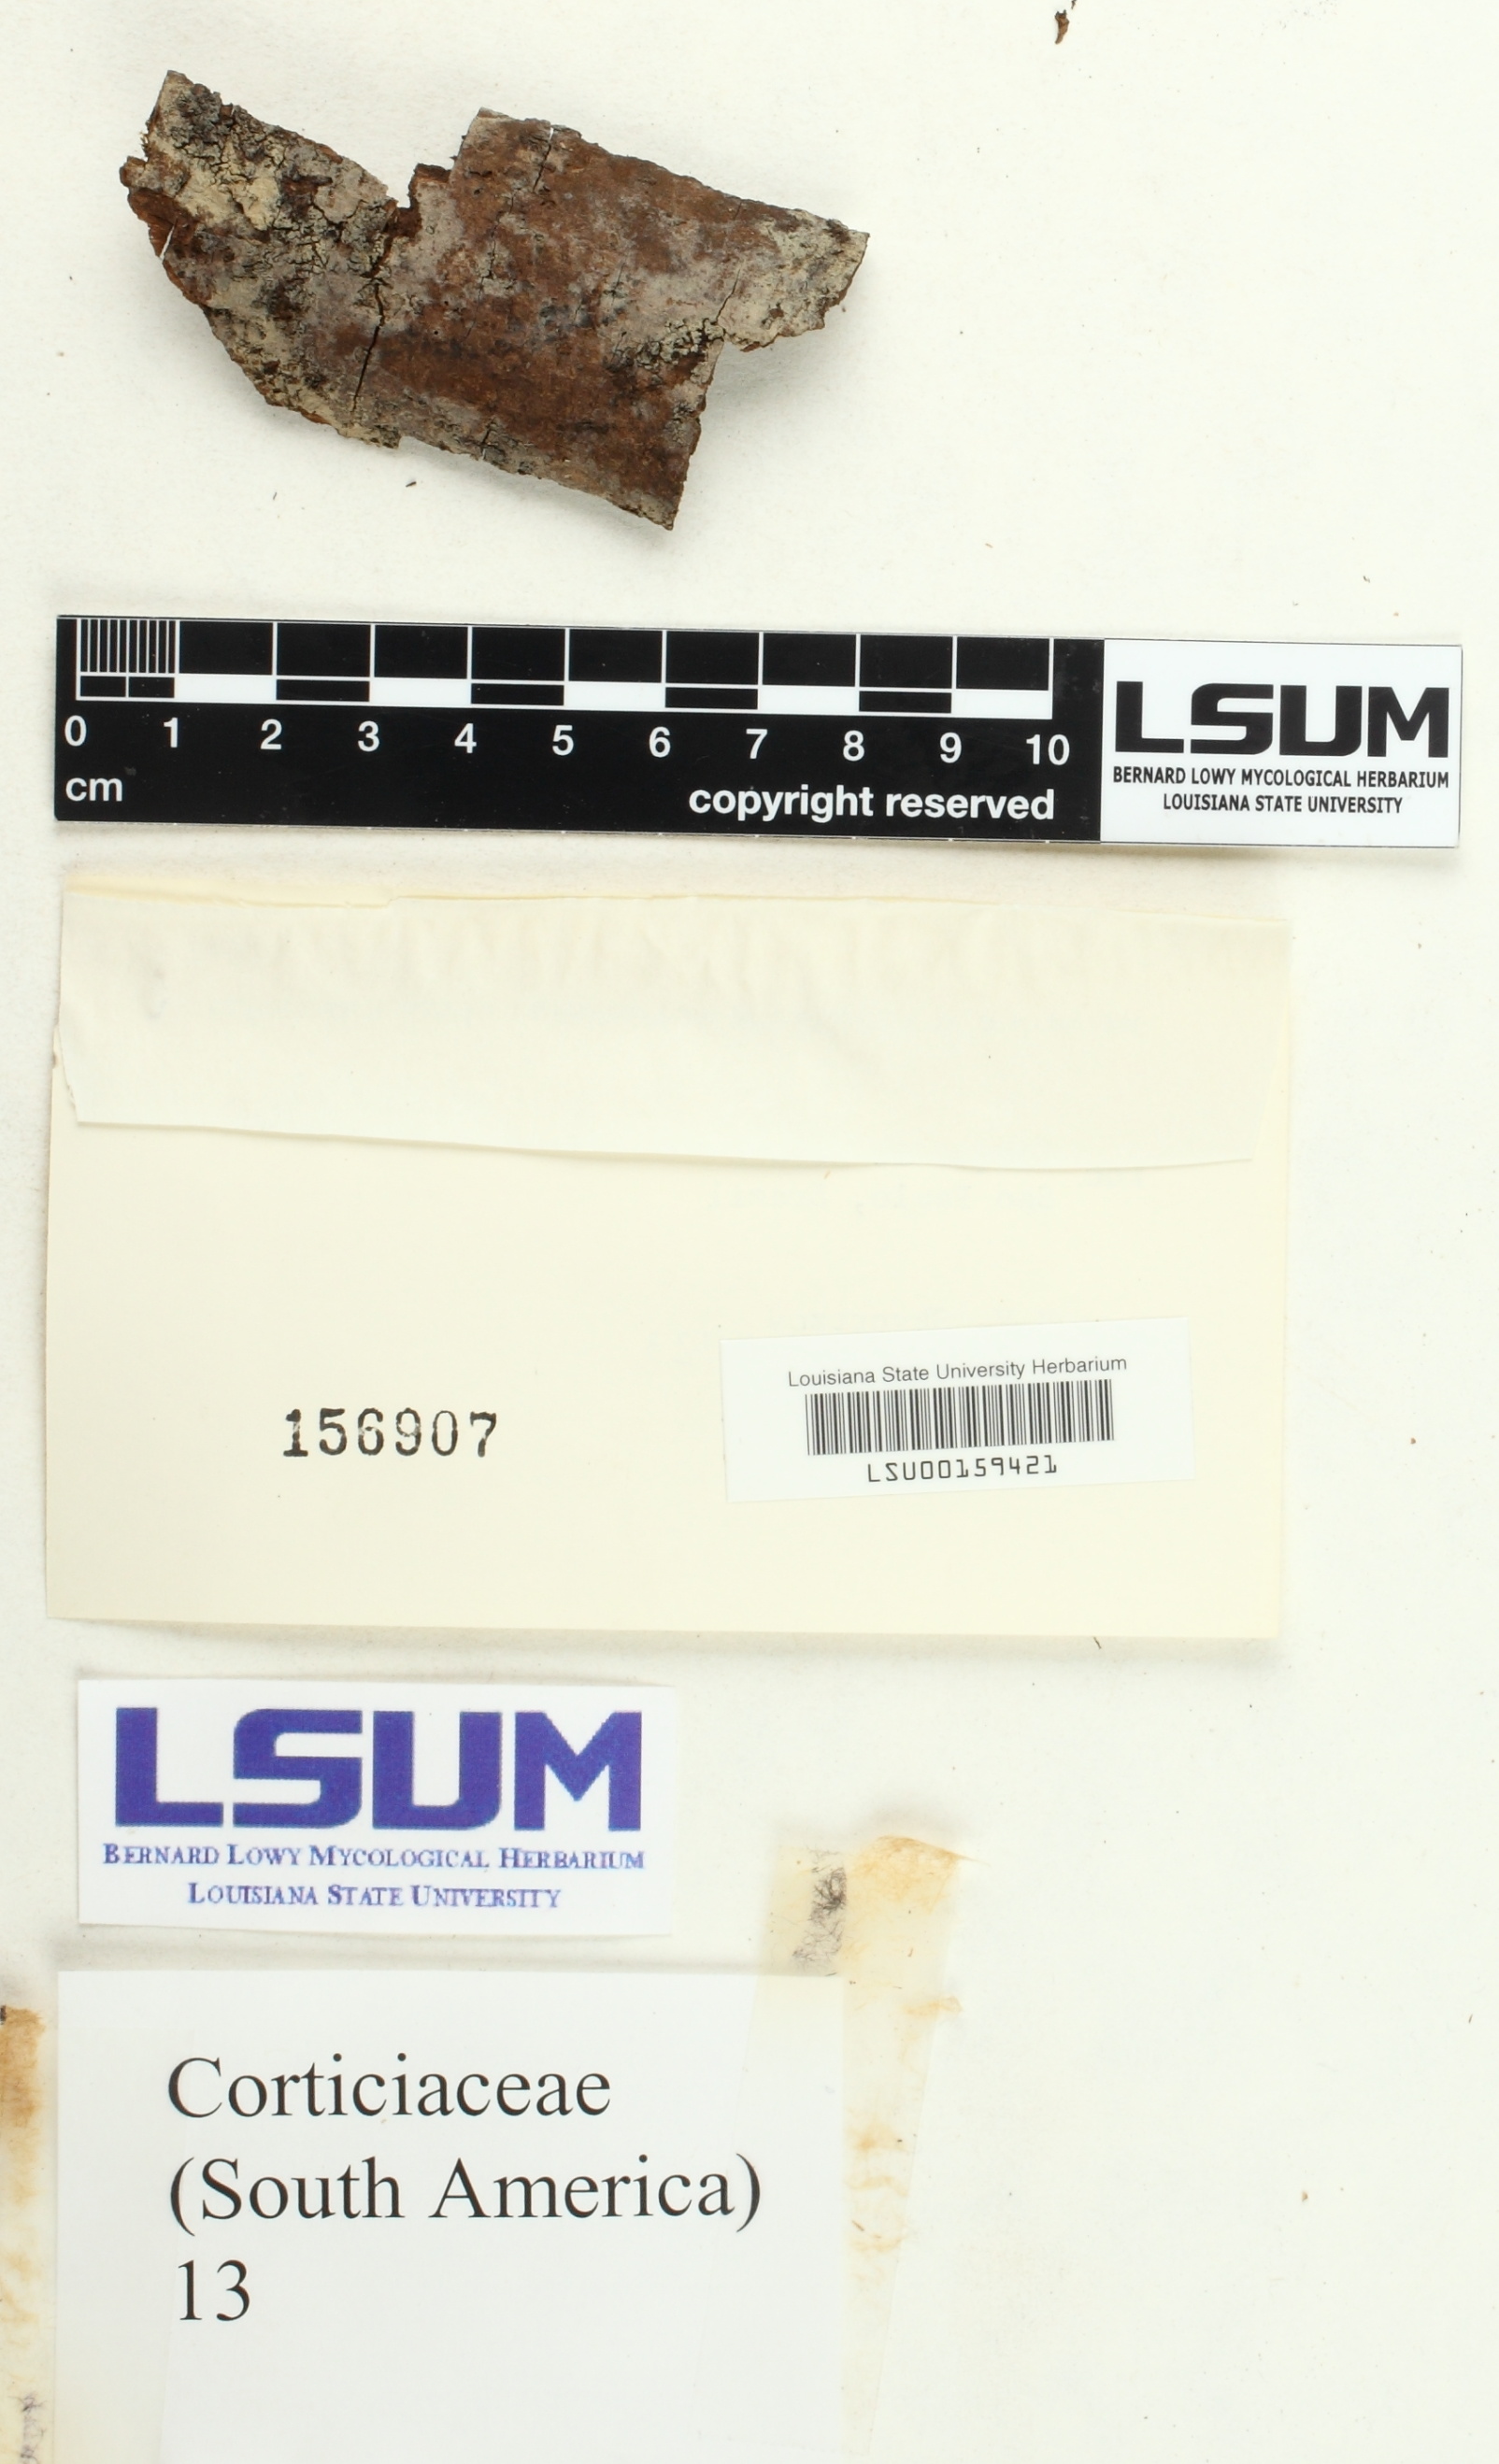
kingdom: Fungi
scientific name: Fungi
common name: Fungi
